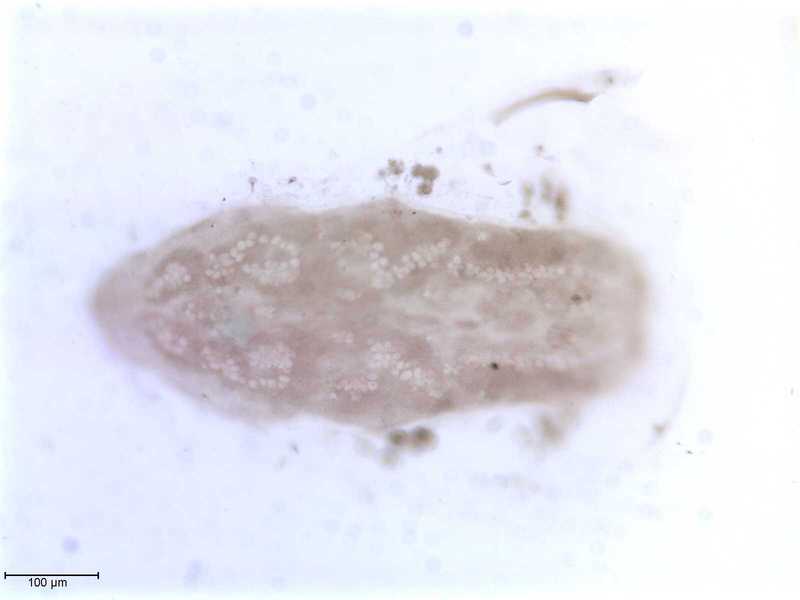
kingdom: Animalia
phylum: Arthropoda
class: Arachnida
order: Mesostigmata
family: Halarachnidae
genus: Orthohalarachne
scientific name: Orthohalarachne letalis
